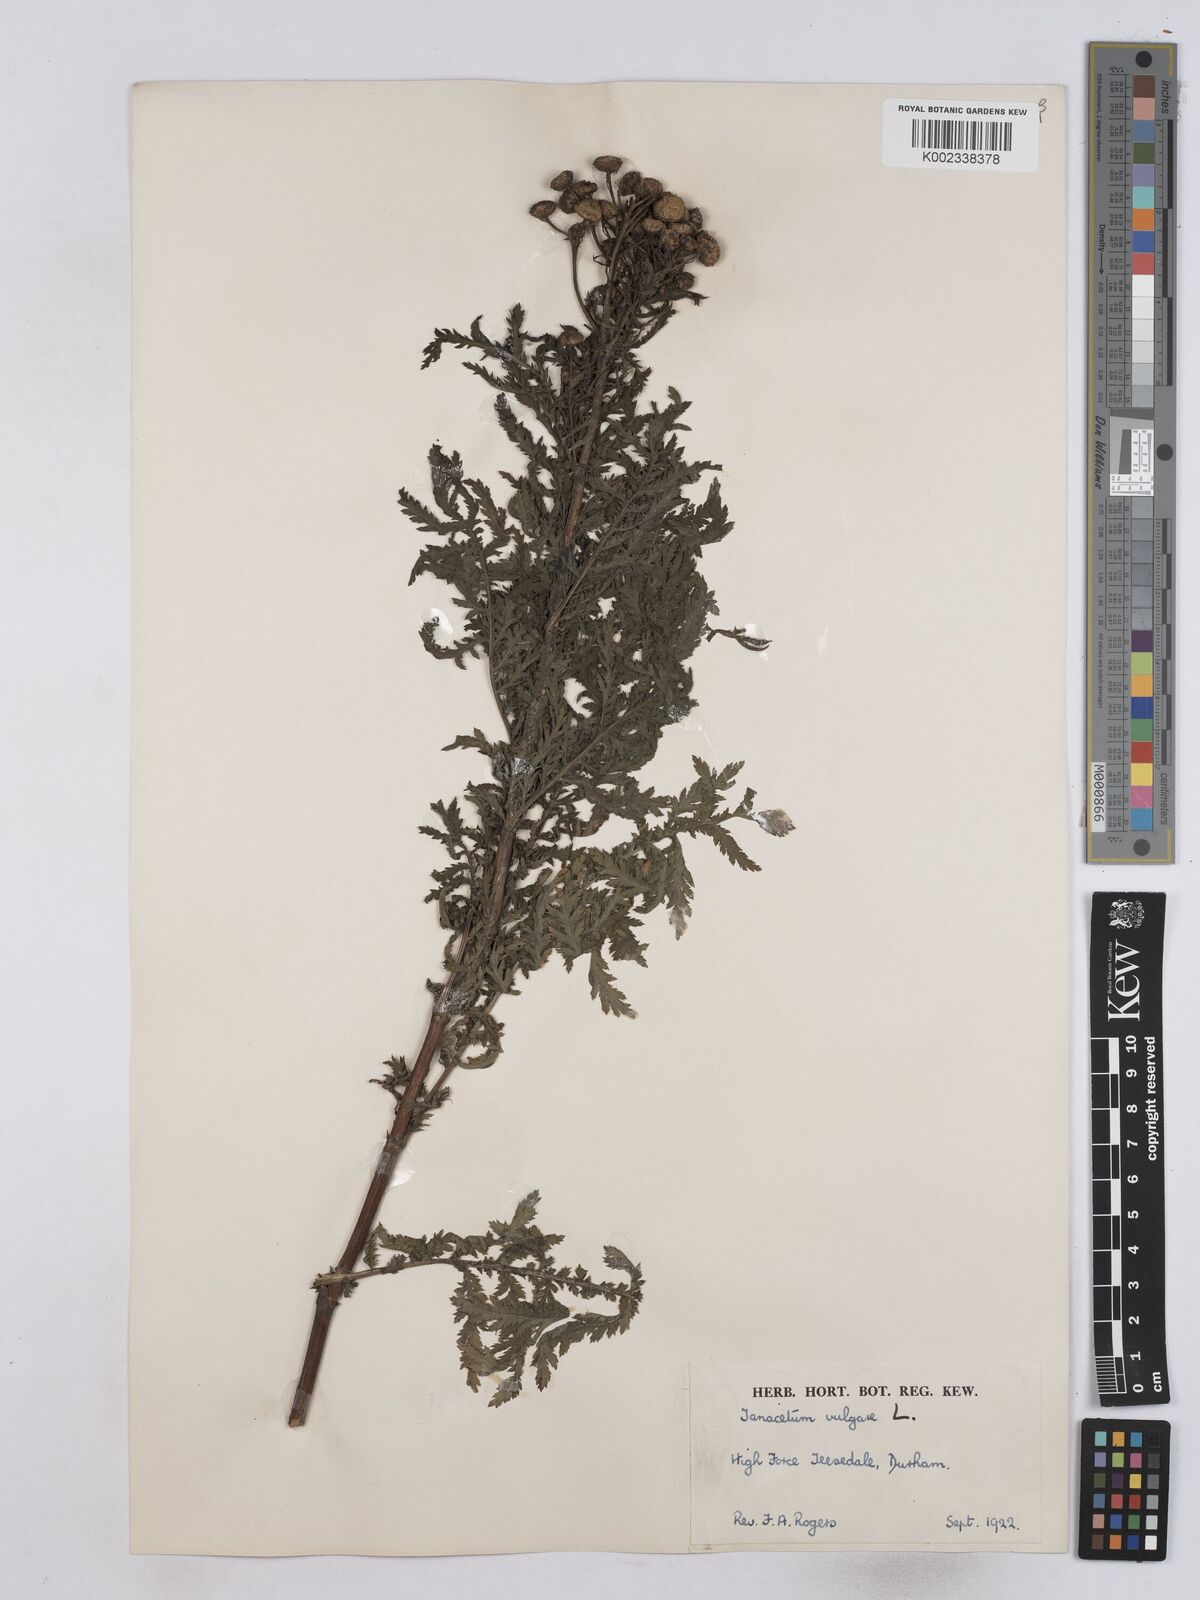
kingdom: Plantae
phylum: Tracheophyta
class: Magnoliopsida
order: Asterales
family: Asteraceae
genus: Tanacetum
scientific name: Tanacetum vulgare
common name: Common tansy
